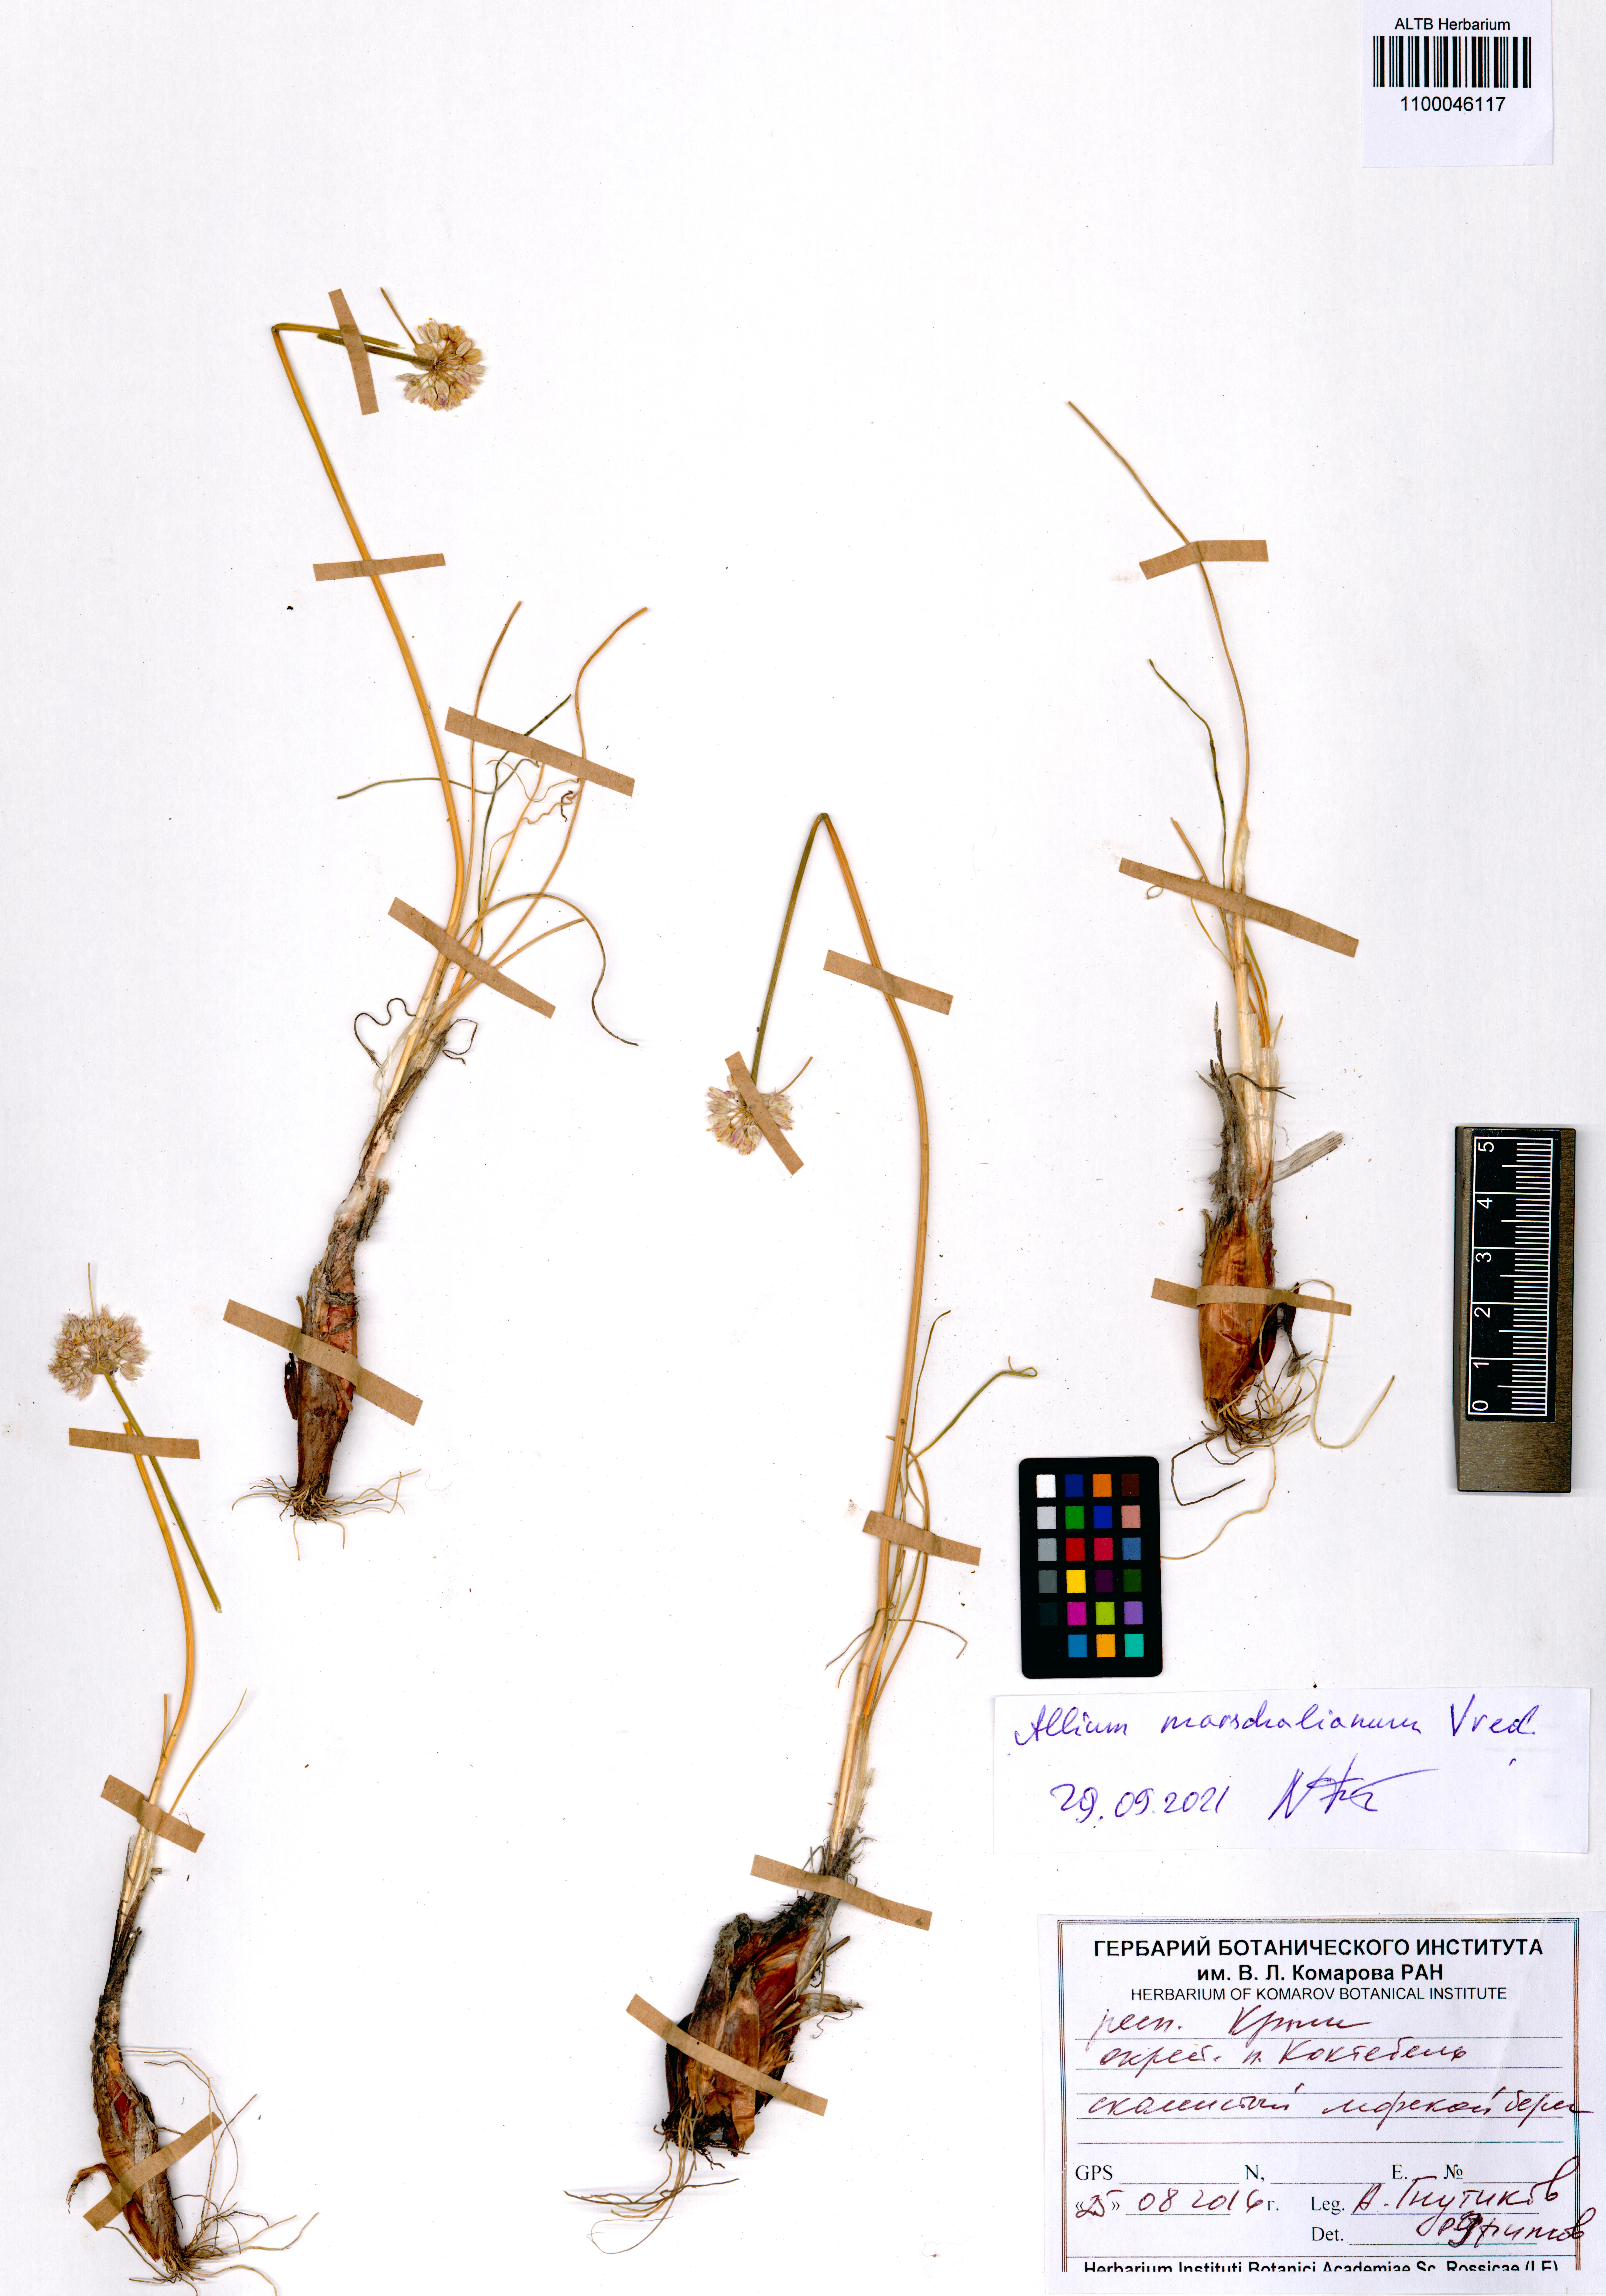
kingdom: Plantae
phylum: Tracheophyta
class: Liliopsida
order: Asparagales
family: Amaryllidaceae
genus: Allium
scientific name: Allium marschallianum
